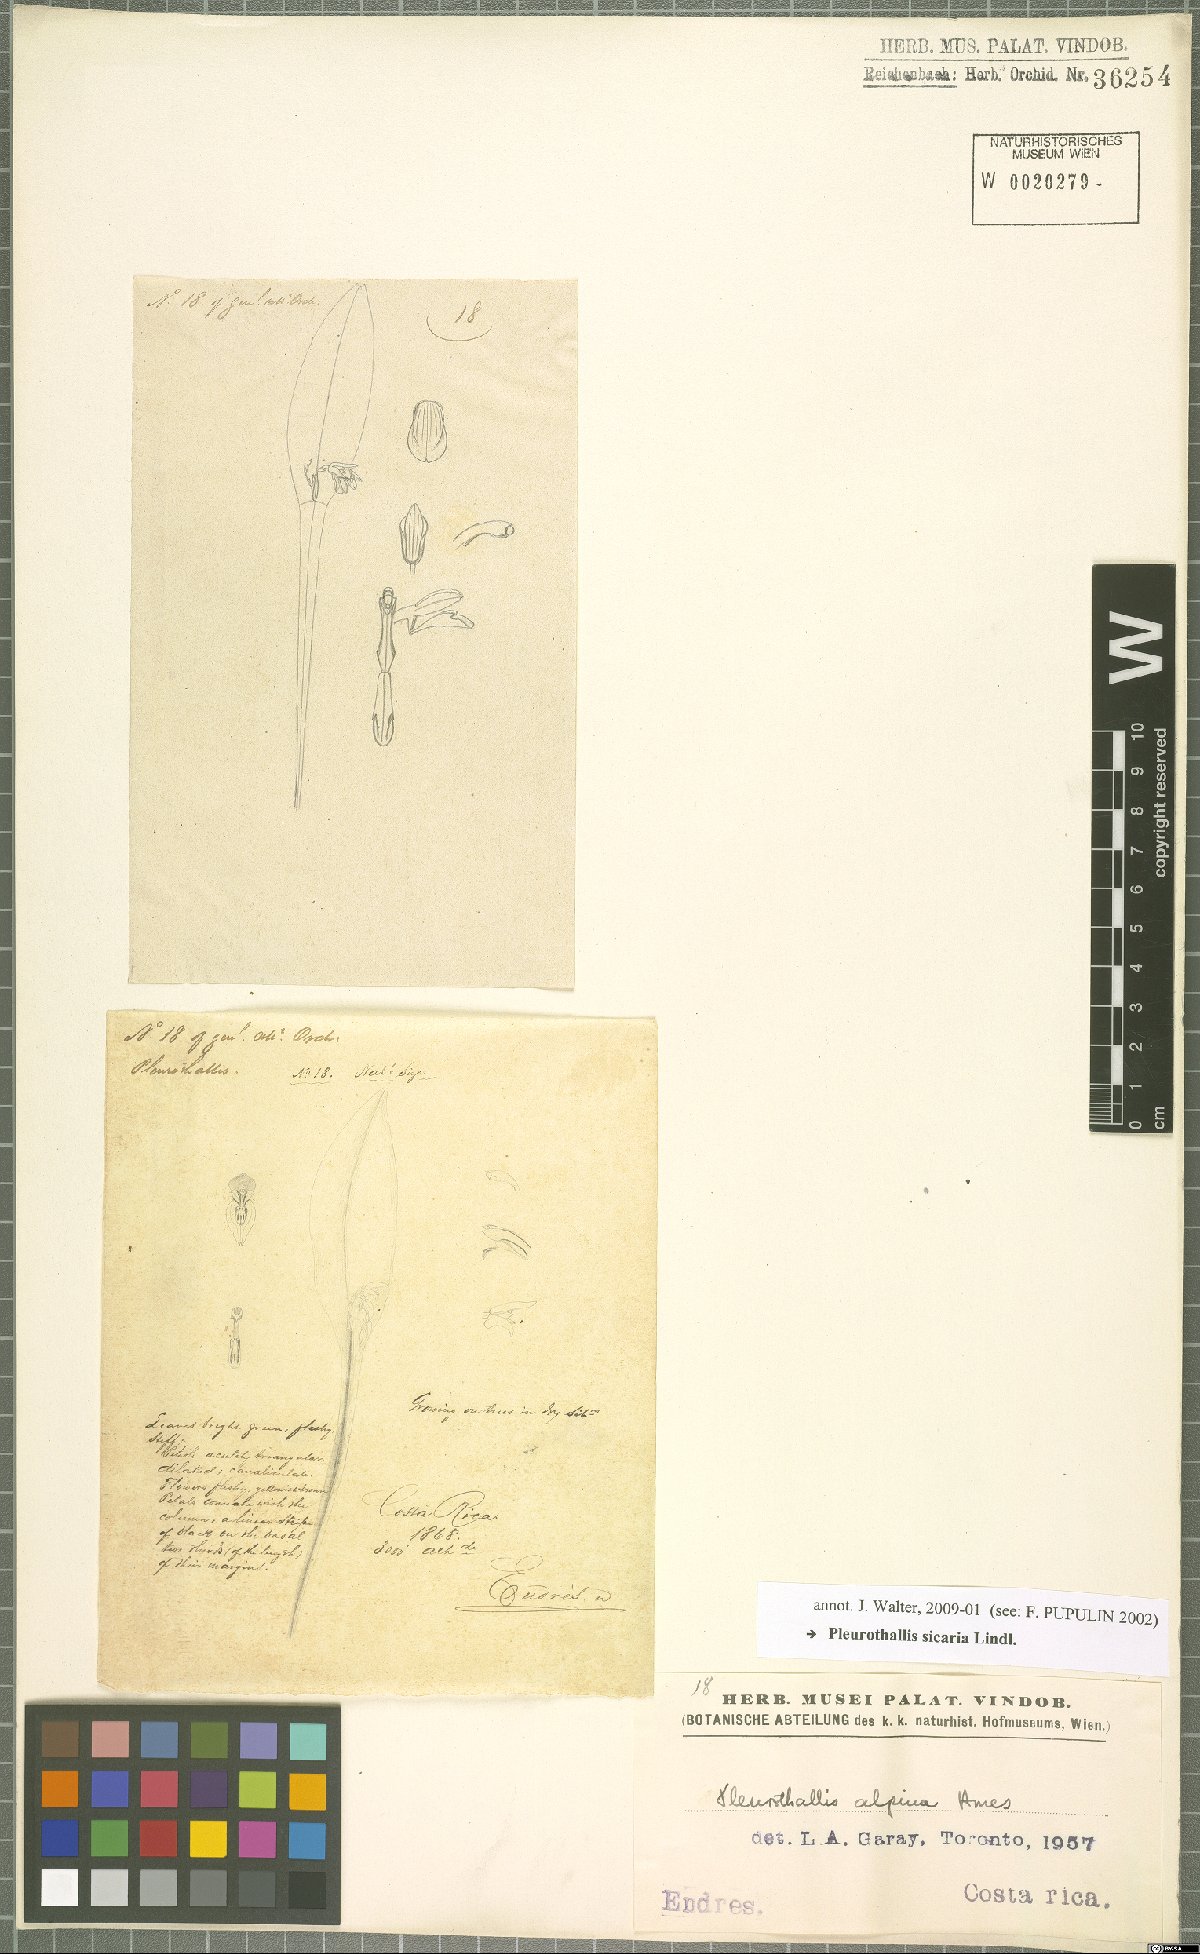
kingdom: Plantae
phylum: Tracheophyta
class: Liliopsida
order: Asparagales
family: Orchidaceae
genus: Acianthera
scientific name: Acianthera sicaria
